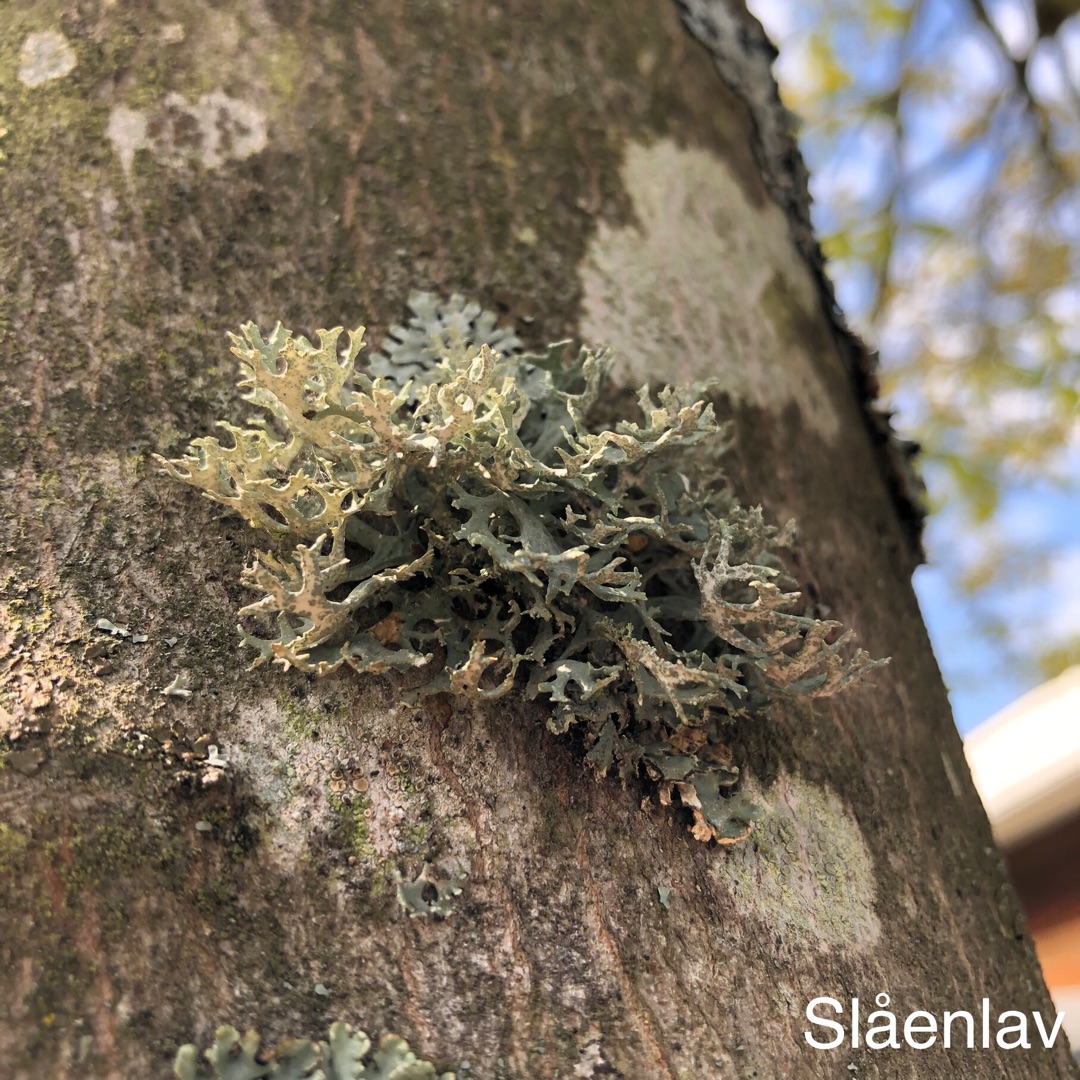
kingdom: Fungi
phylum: Ascomycota
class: Lecanoromycetes
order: Lecanorales
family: Parmeliaceae
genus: Evernia
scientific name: Evernia prunastri
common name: Almindelig slåenlav
